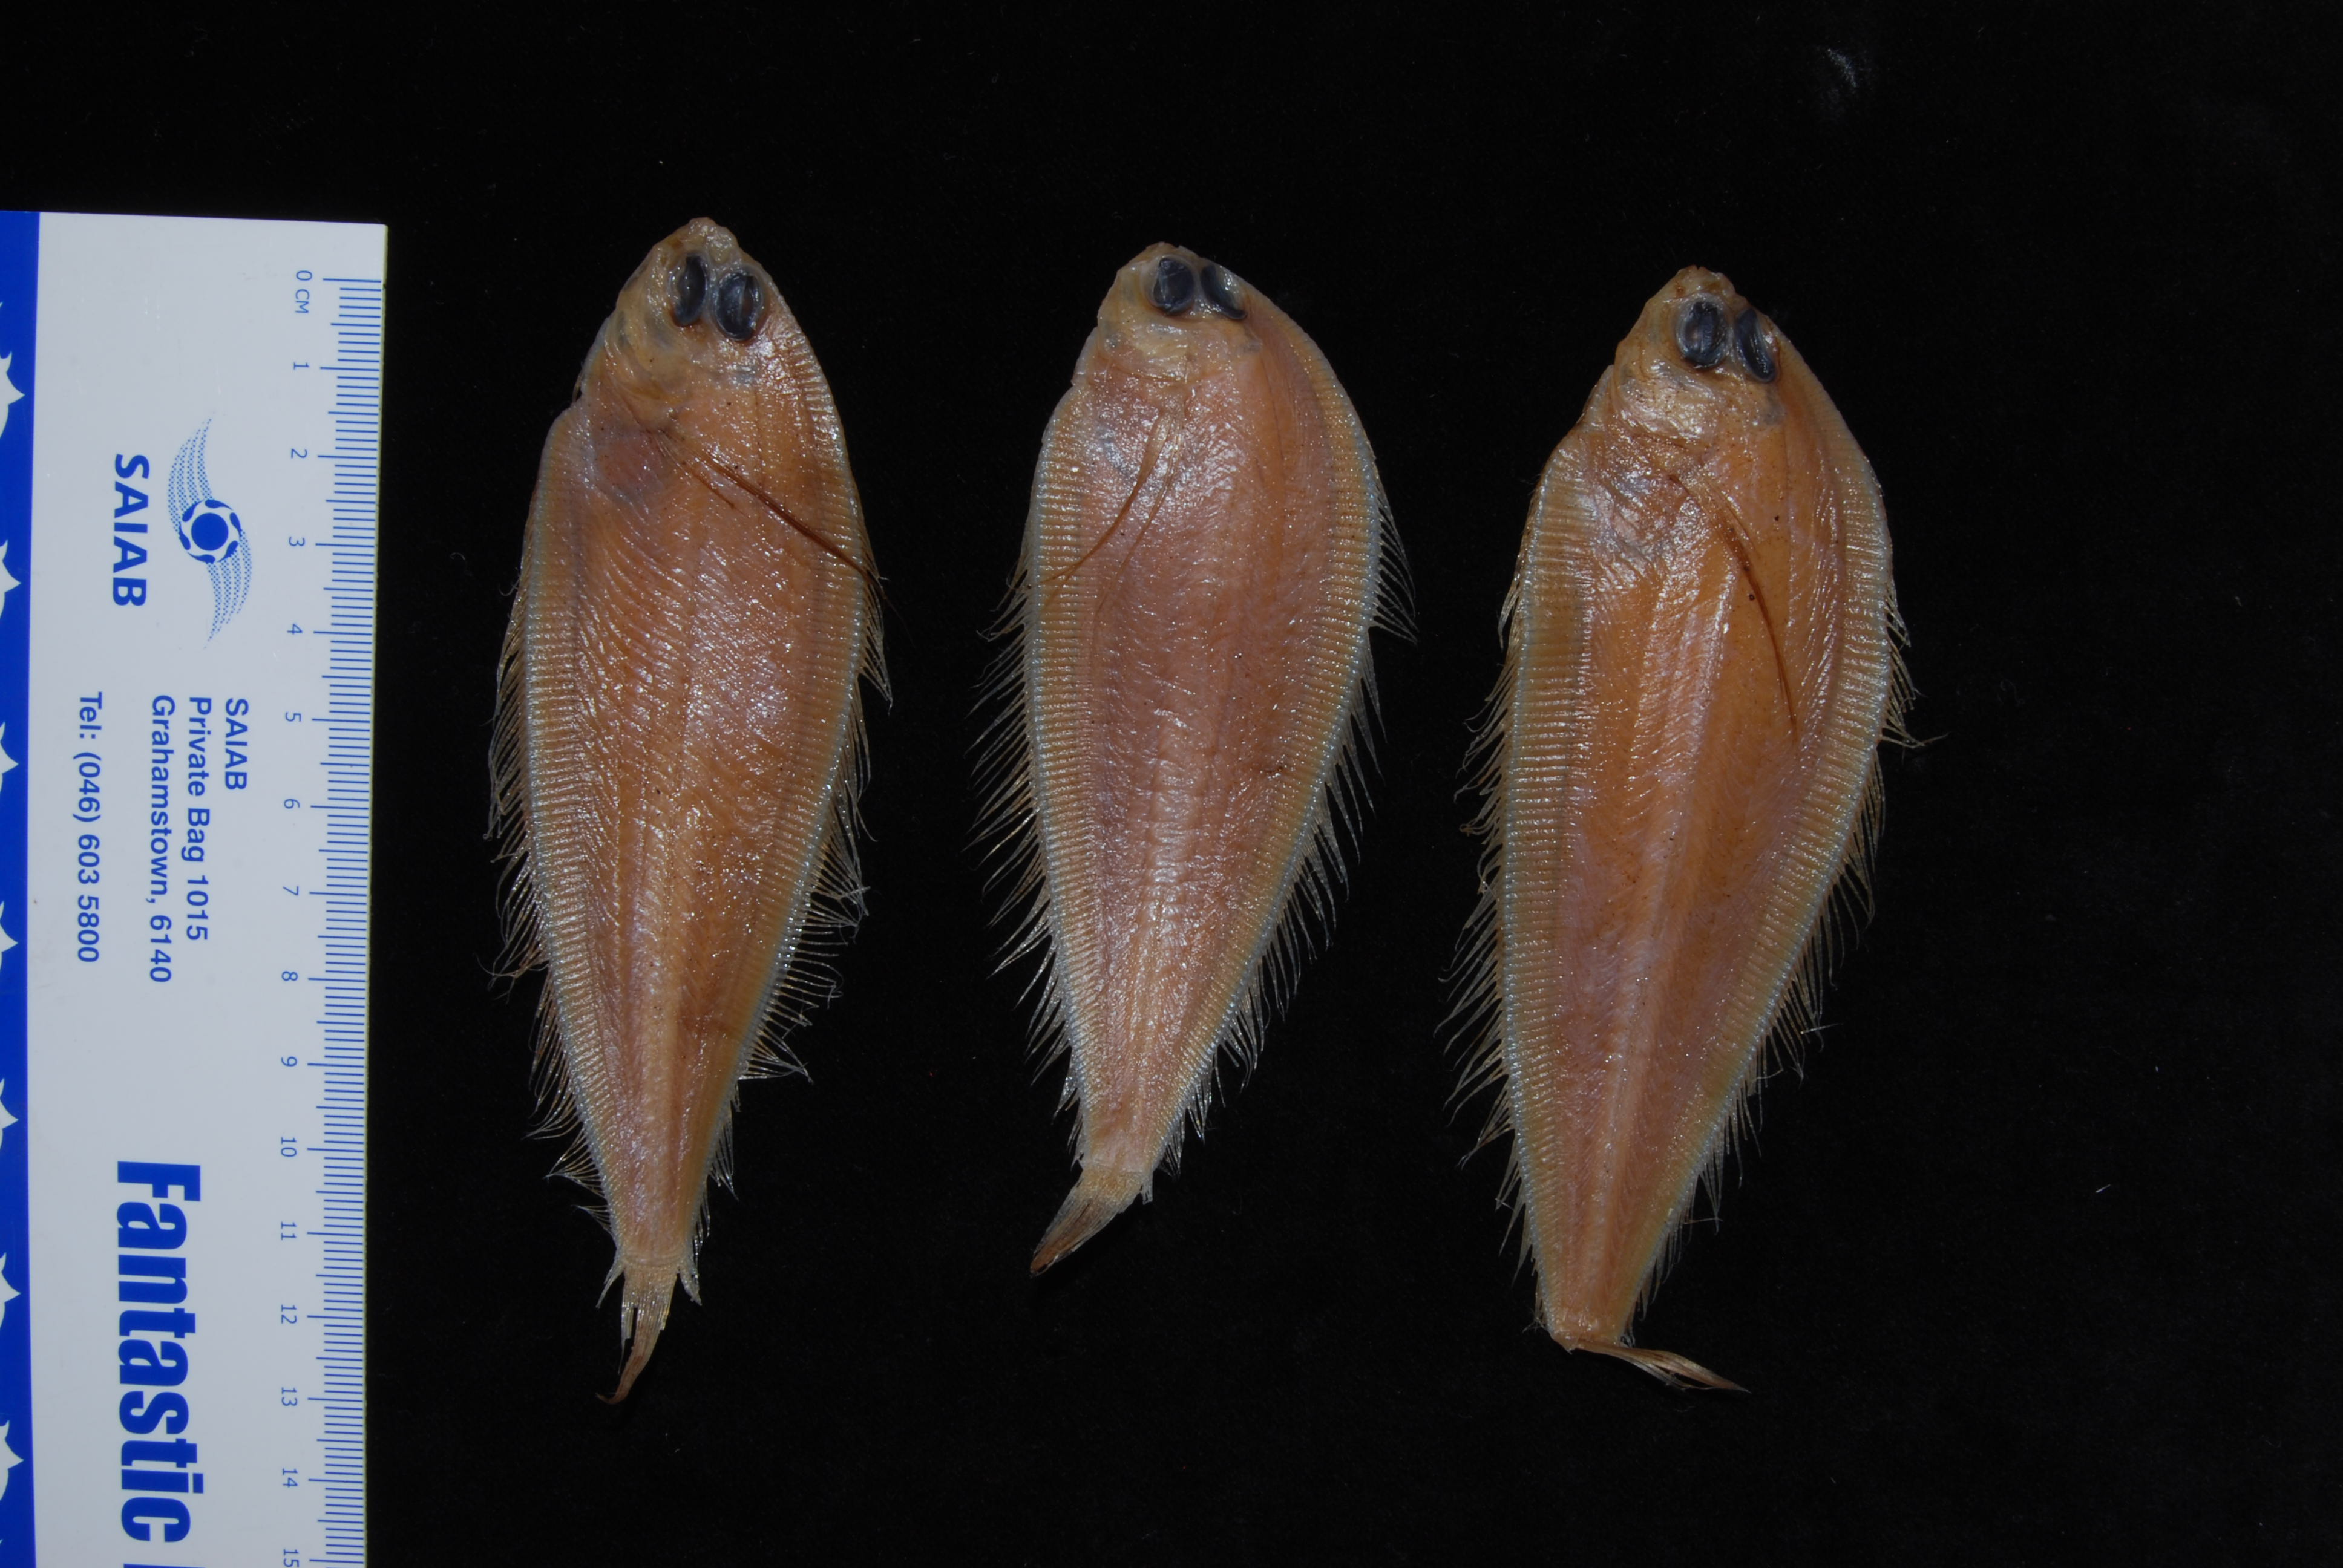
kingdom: Animalia
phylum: Chordata
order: Pleuronectiformes
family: Bothidae
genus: Laeops
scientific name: Laeops pectoralis
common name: Longarm flounder
